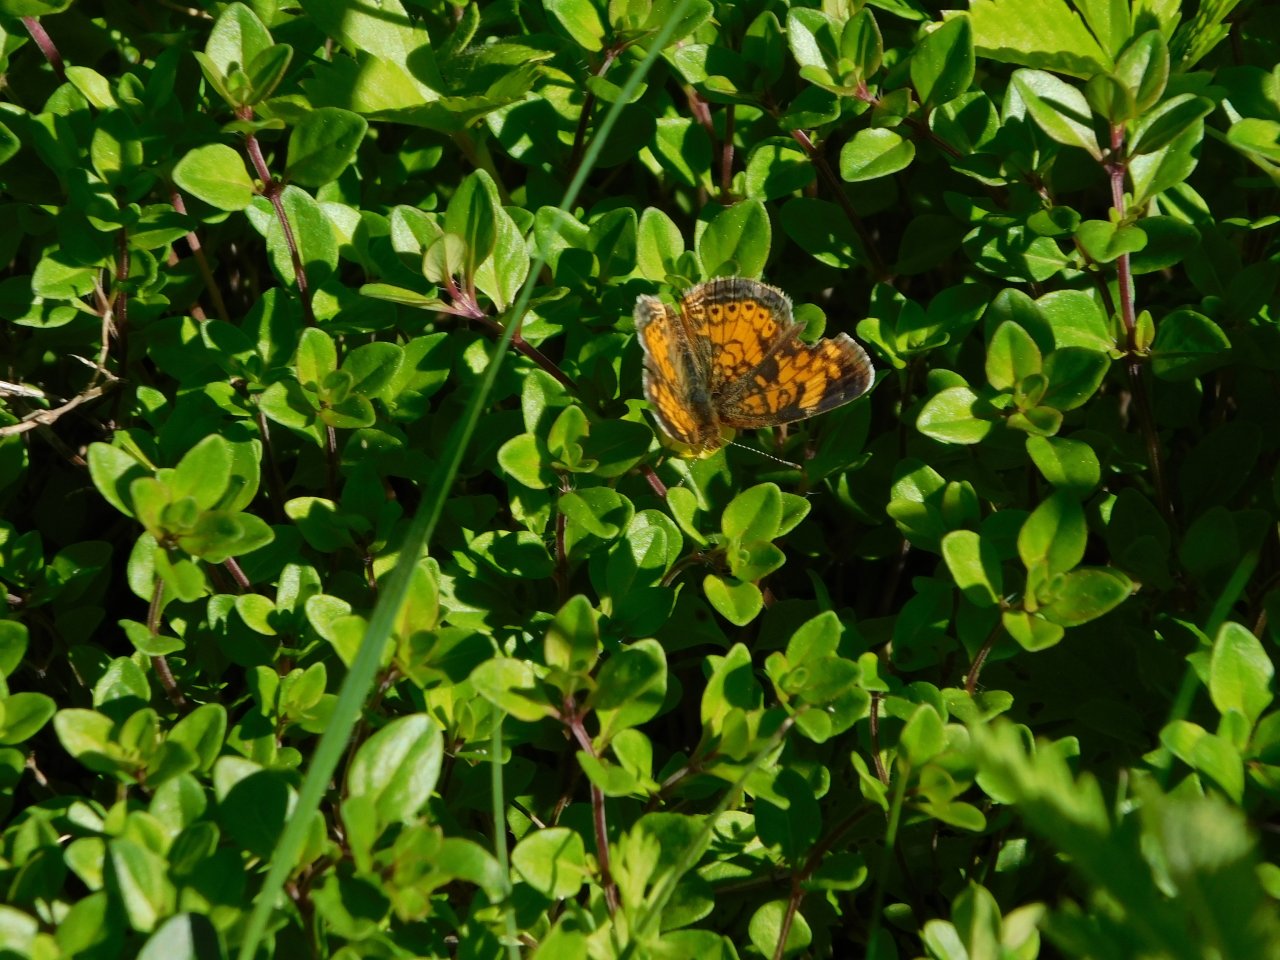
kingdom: Animalia
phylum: Arthropoda
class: Insecta
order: Lepidoptera
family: Nymphalidae
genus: Phyciodes
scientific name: Phyciodes tharos
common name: Pearl Crescent
